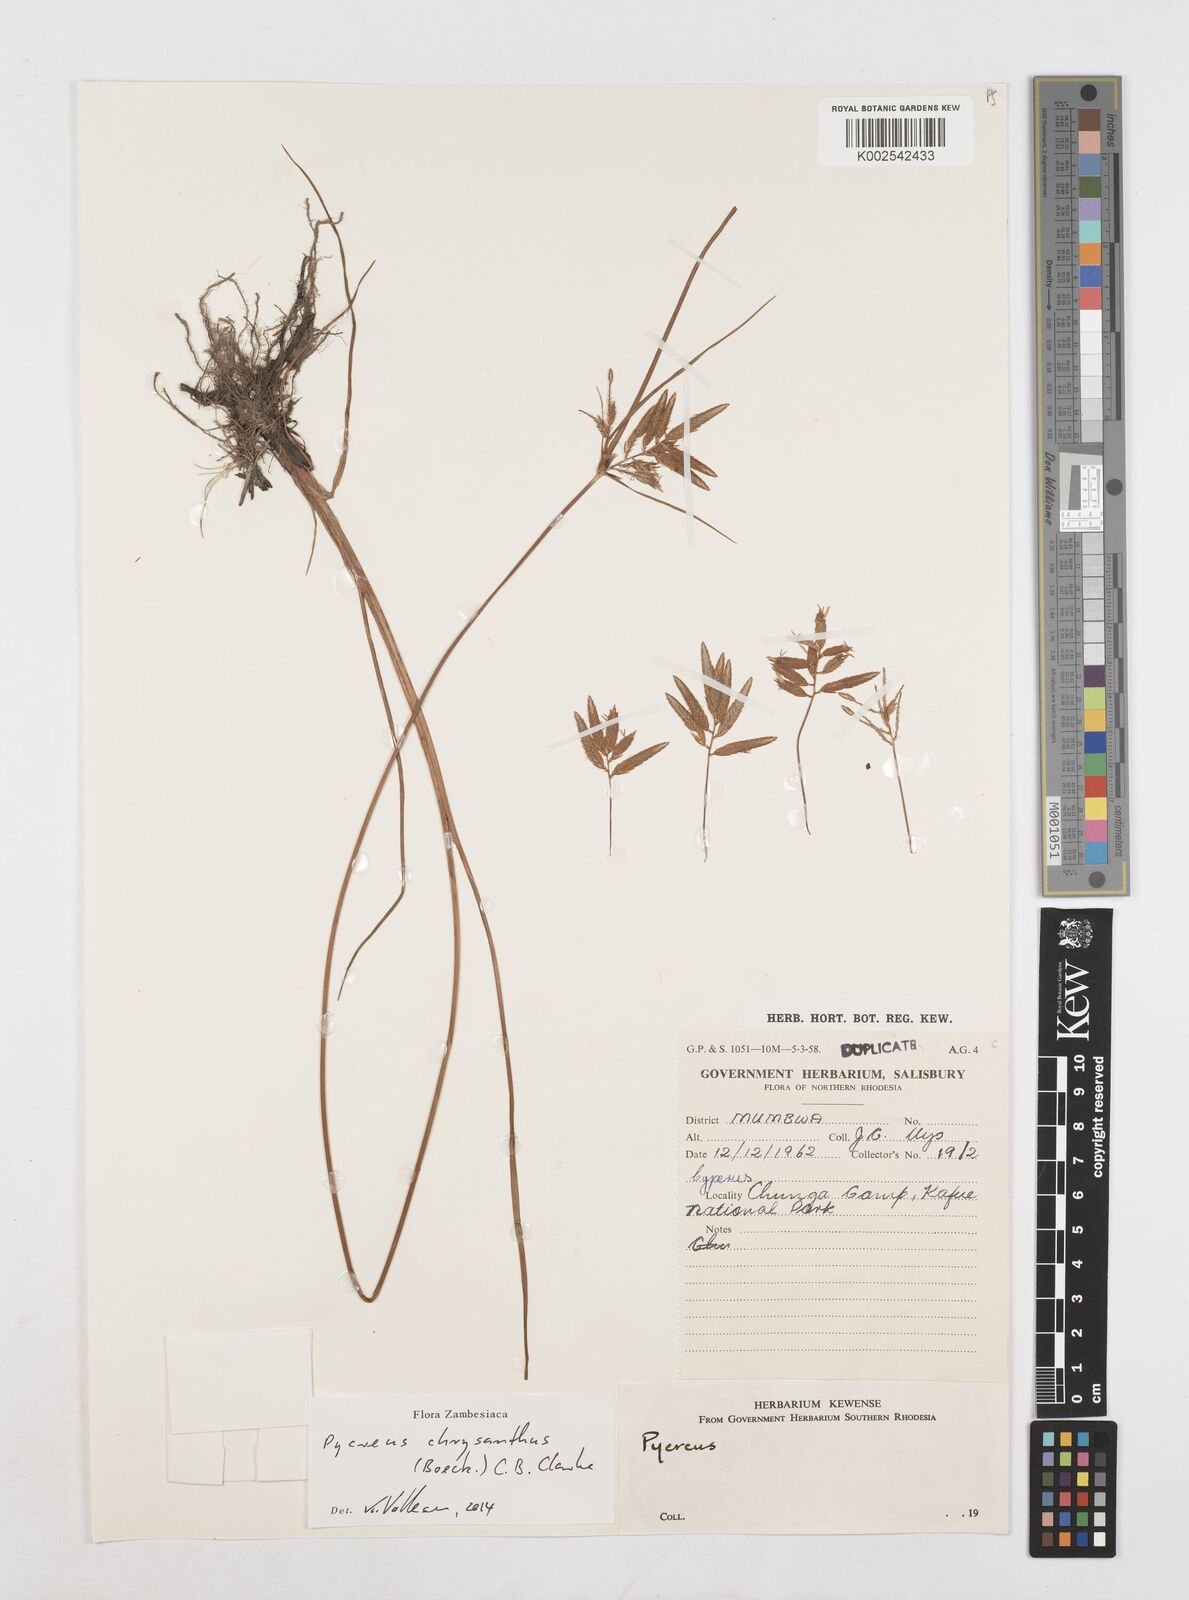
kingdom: Plantae
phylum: Tracheophyta
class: Liliopsida
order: Poales
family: Cyperaceae
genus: Cyperus
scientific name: Cyperus chrysanthus
